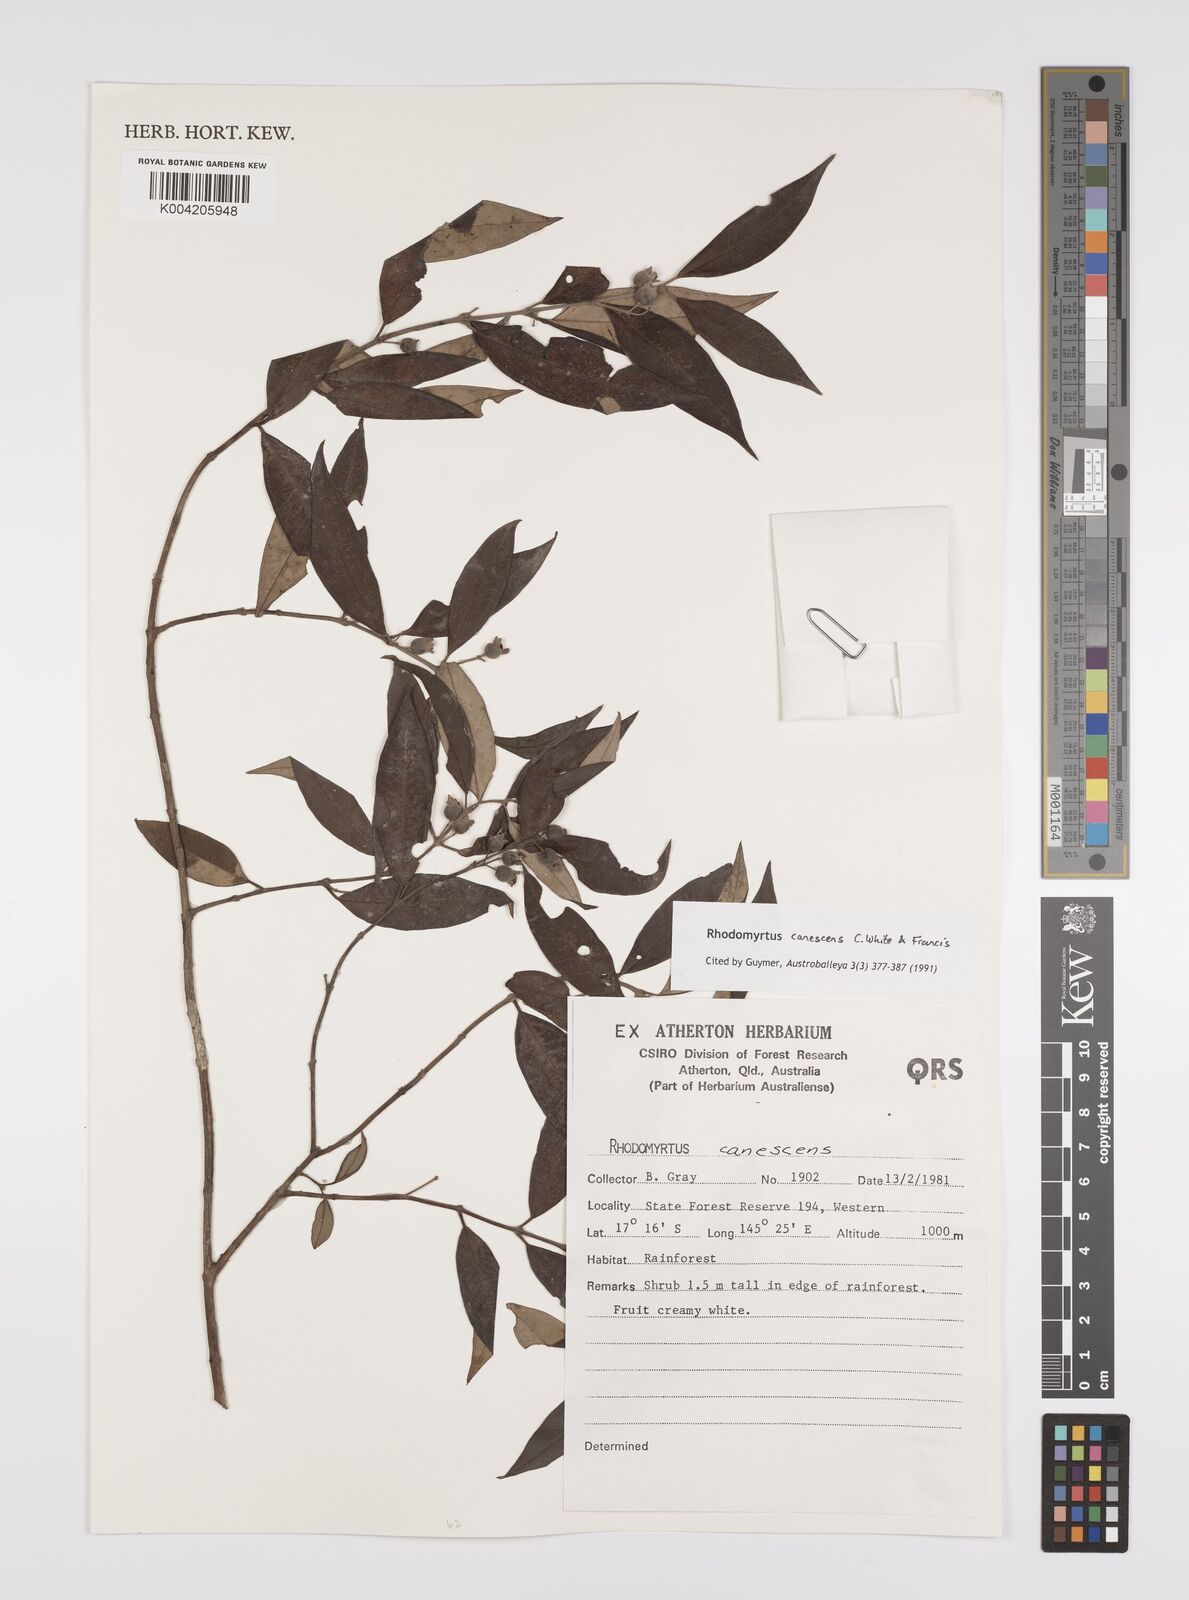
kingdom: Plantae
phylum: Tracheophyta
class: Magnoliopsida
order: Myrtales
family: Myrtaceae
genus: Rhodomyrtus
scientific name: Rhodomyrtus trineura
